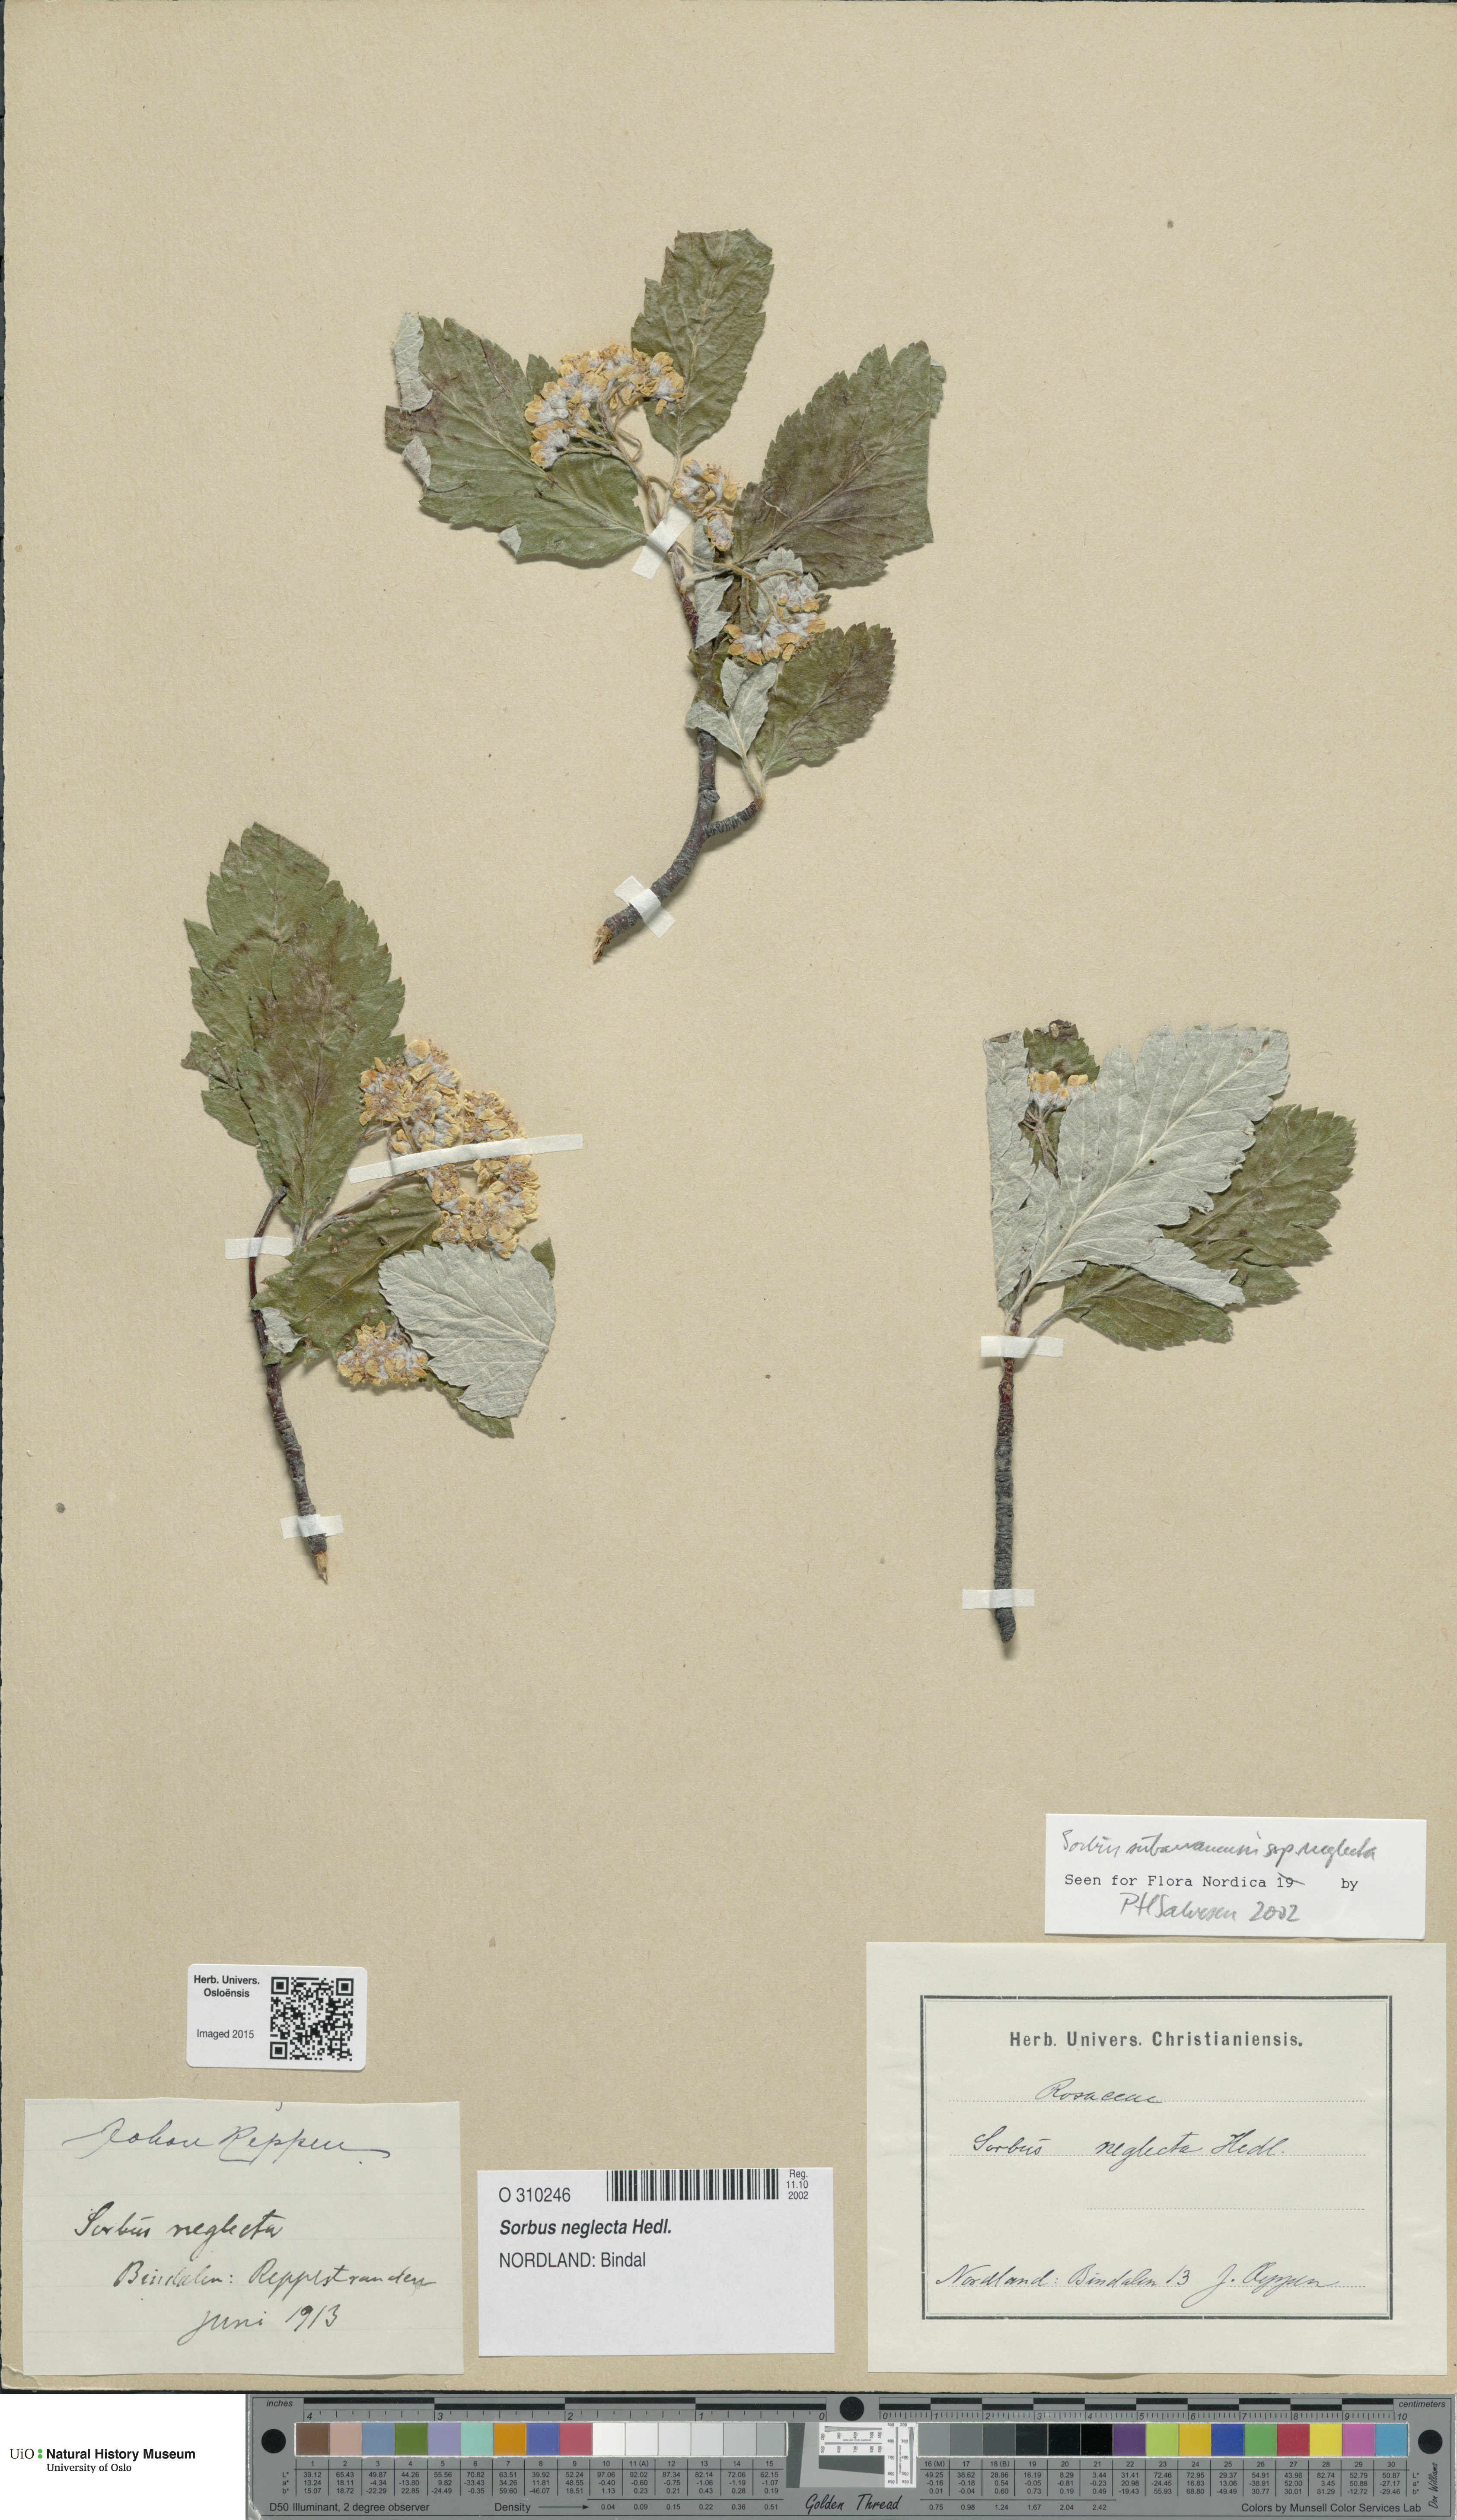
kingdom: Plantae
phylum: Tracheophyta
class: Magnoliopsida
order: Rosales
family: Rosaceae
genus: Hedlundia
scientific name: Hedlundia neglecta
